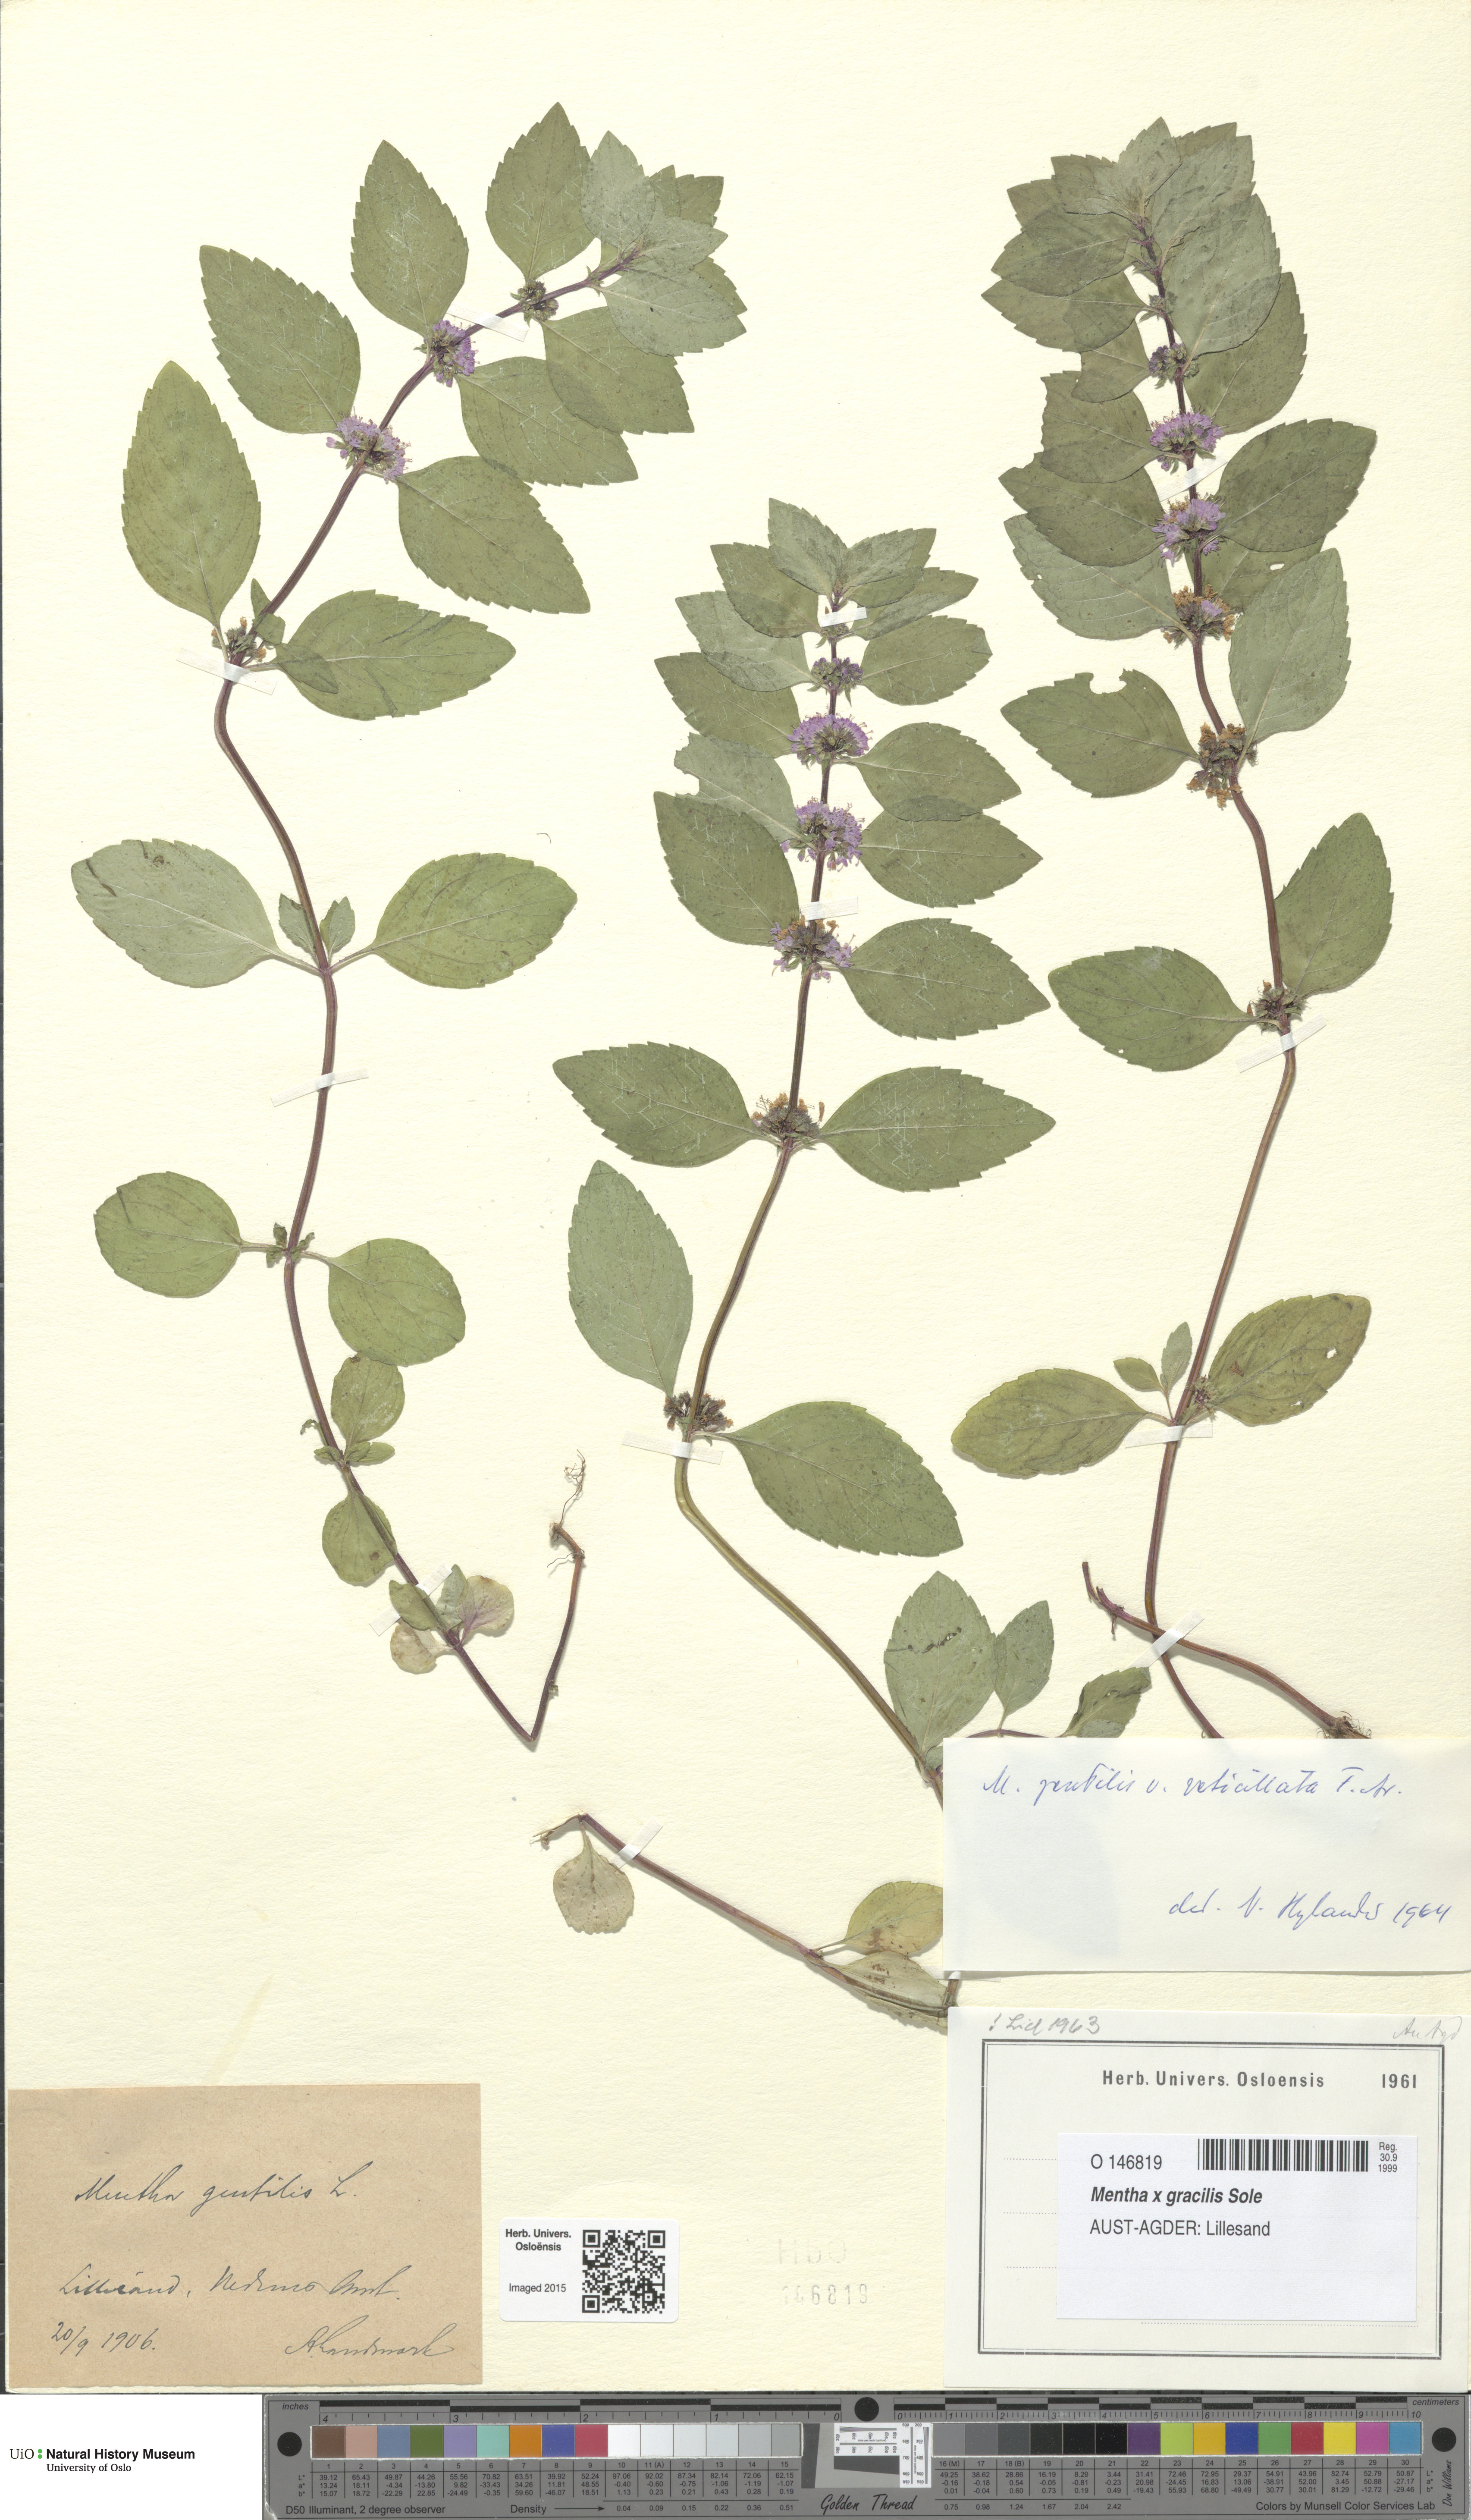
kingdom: Plantae
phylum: Tracheophyta
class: Magnoliopsida
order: Lamiales
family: Lamiaceae
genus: Mentha
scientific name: Mentha arvensis
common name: Corn mint
